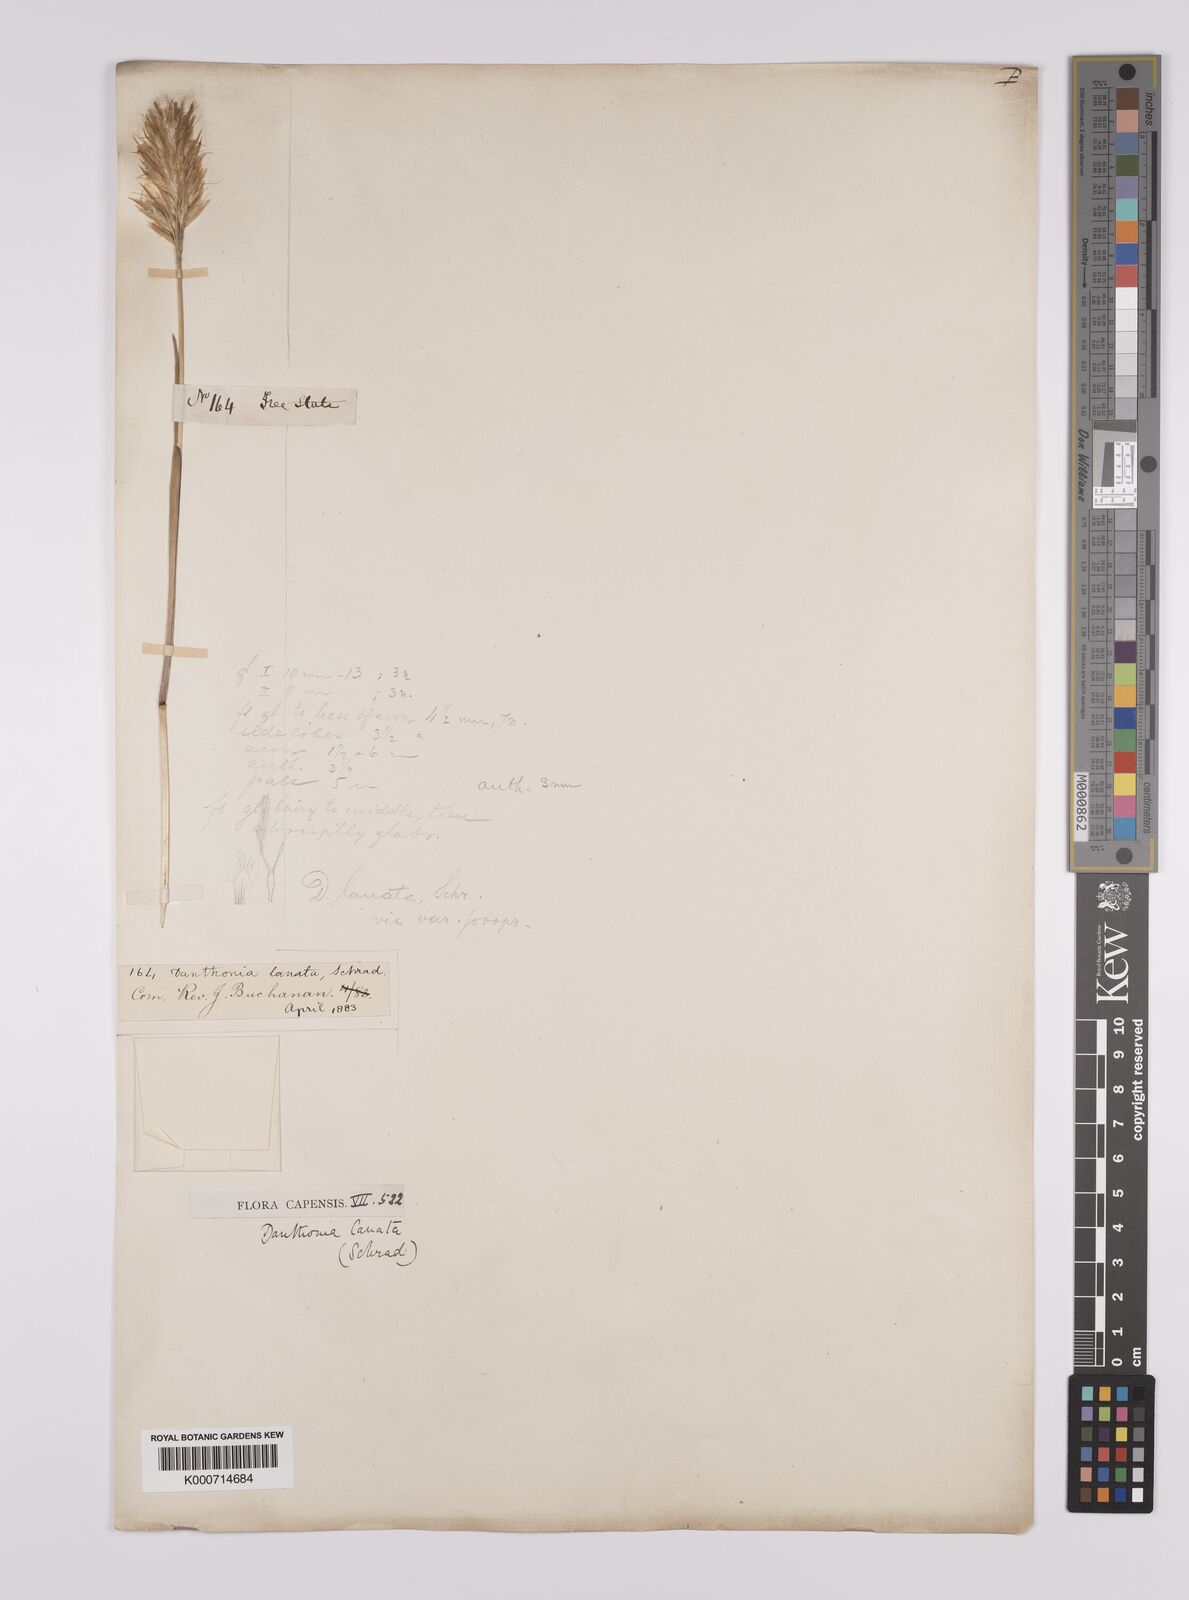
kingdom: Plantae
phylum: Tracheophyta
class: Liliopsida
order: Poales
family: Poaceae
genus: Rytidosperma
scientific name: Rytidosperma
